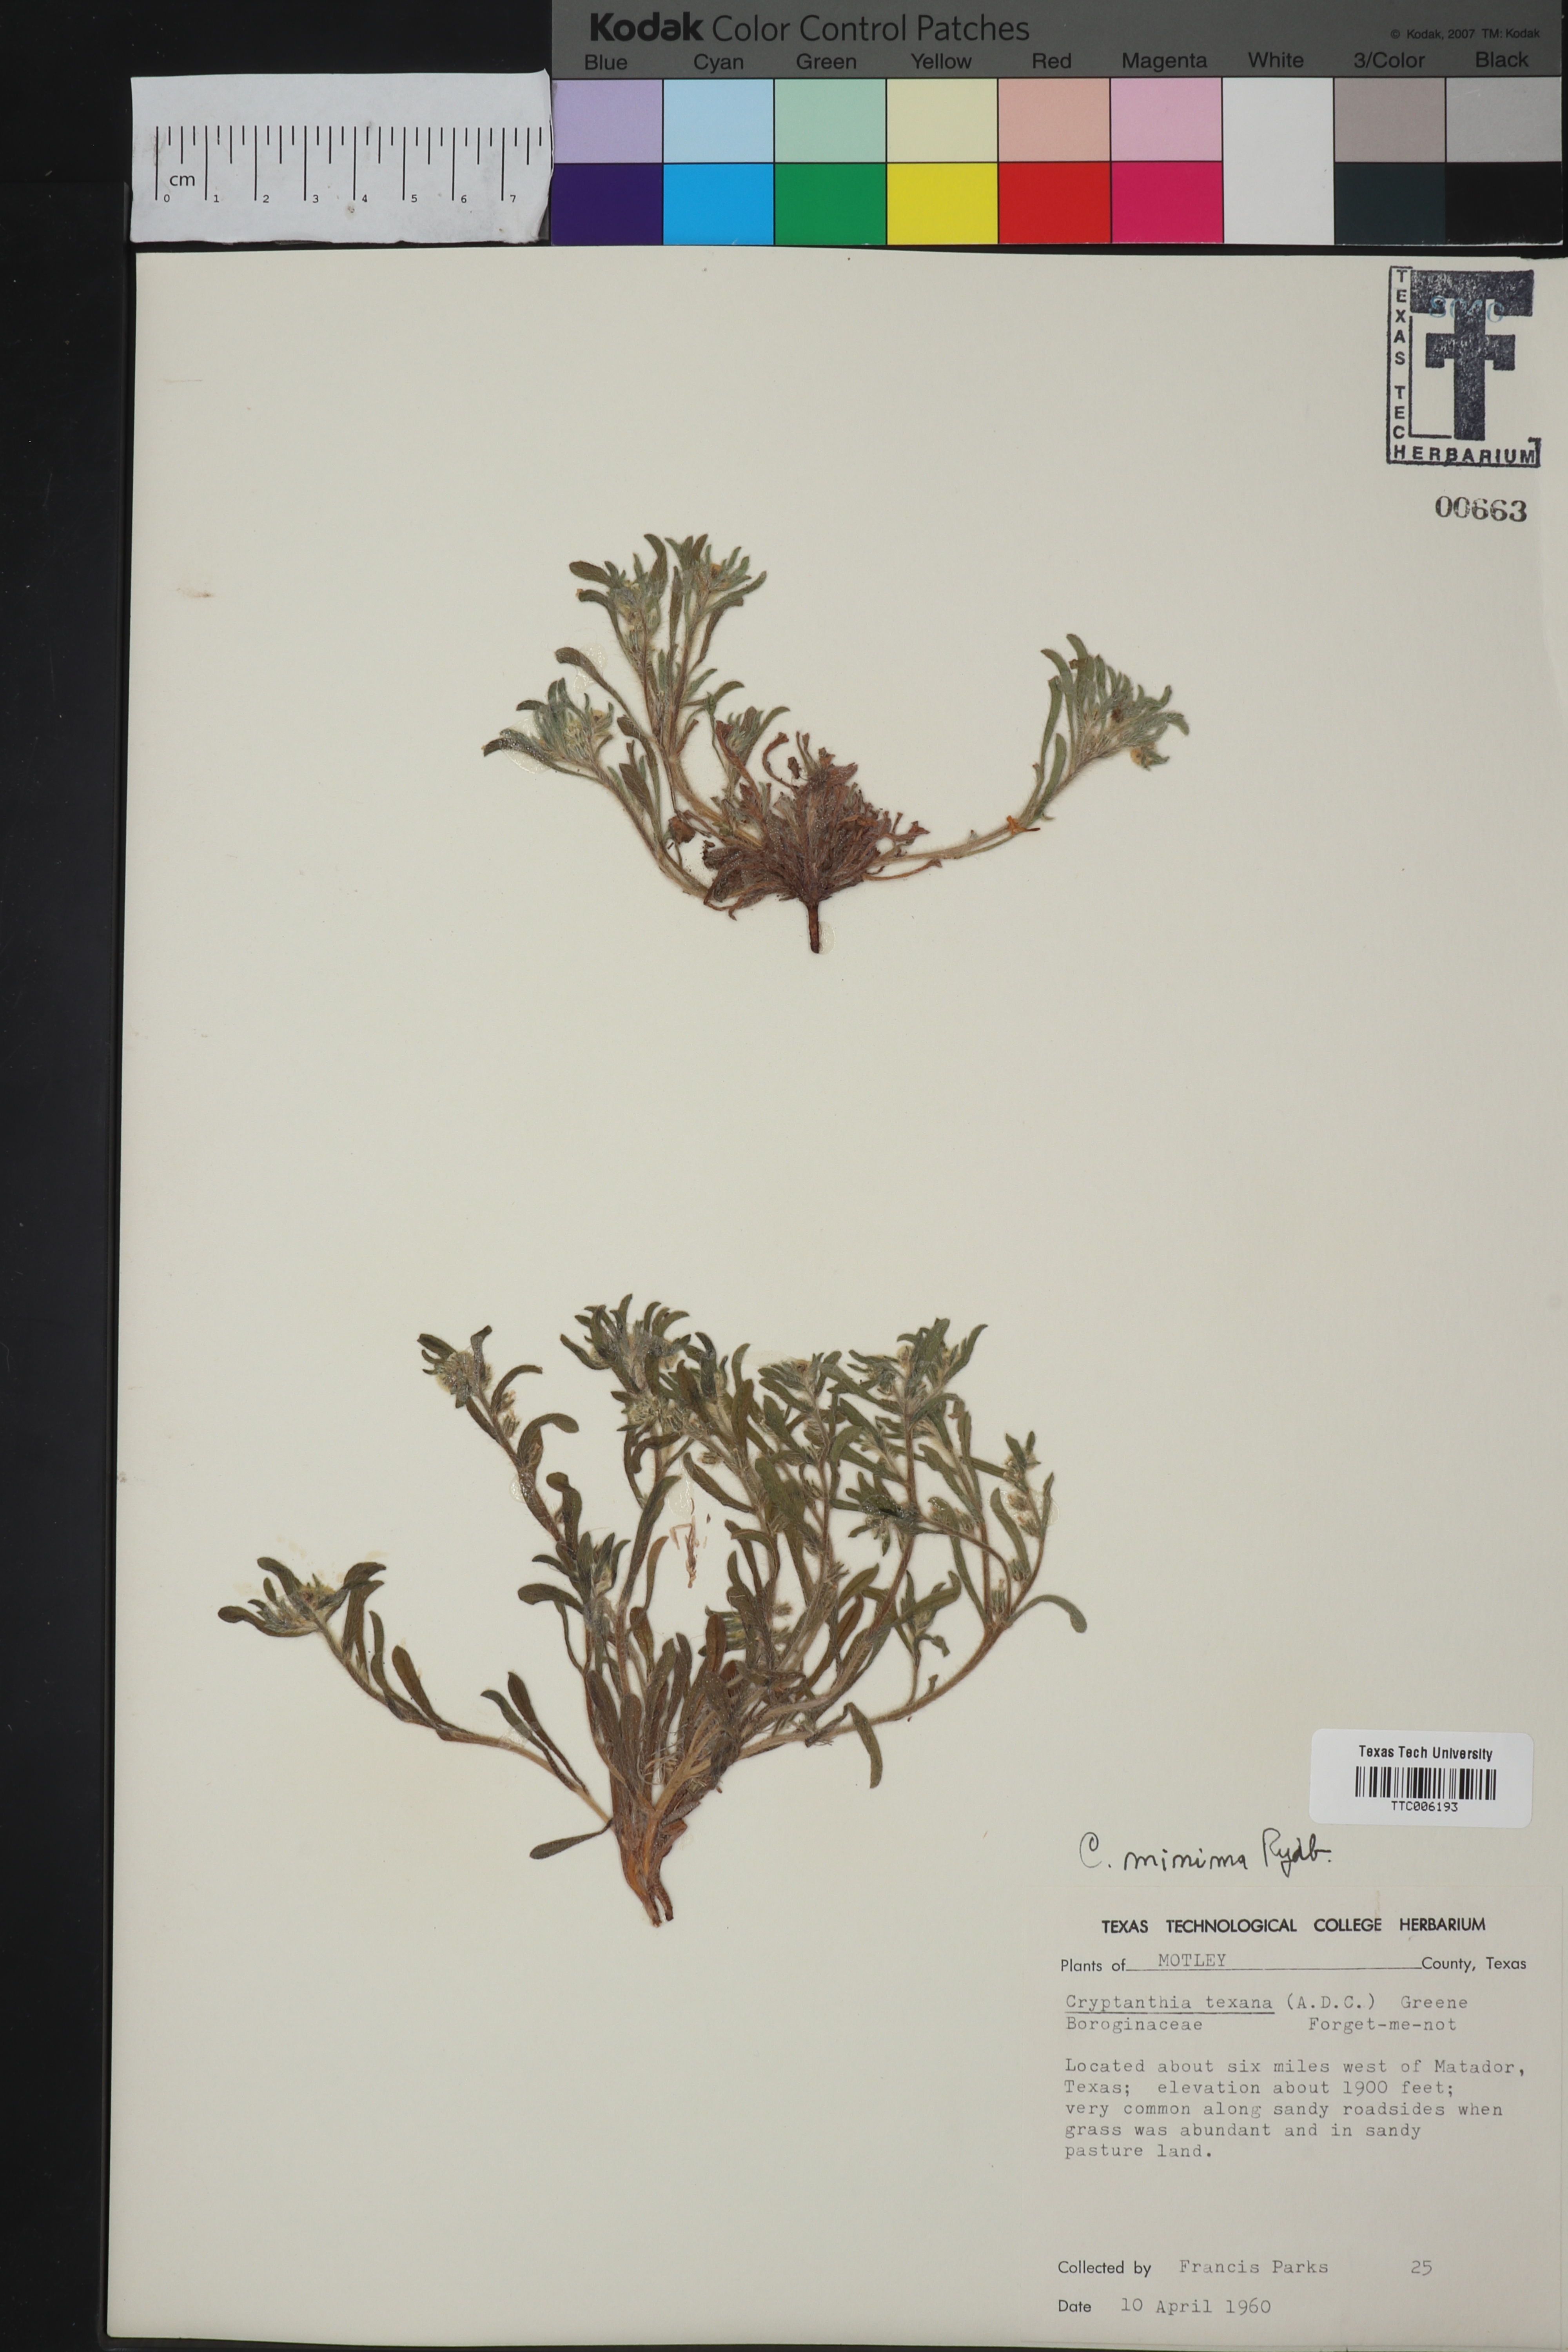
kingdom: Plantae
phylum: Tracheophyta
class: Magnoliopsida
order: Boraginales
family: Boraginaceae
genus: Cryptantha
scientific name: Cryptantha minima
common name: Little cat's-eye
